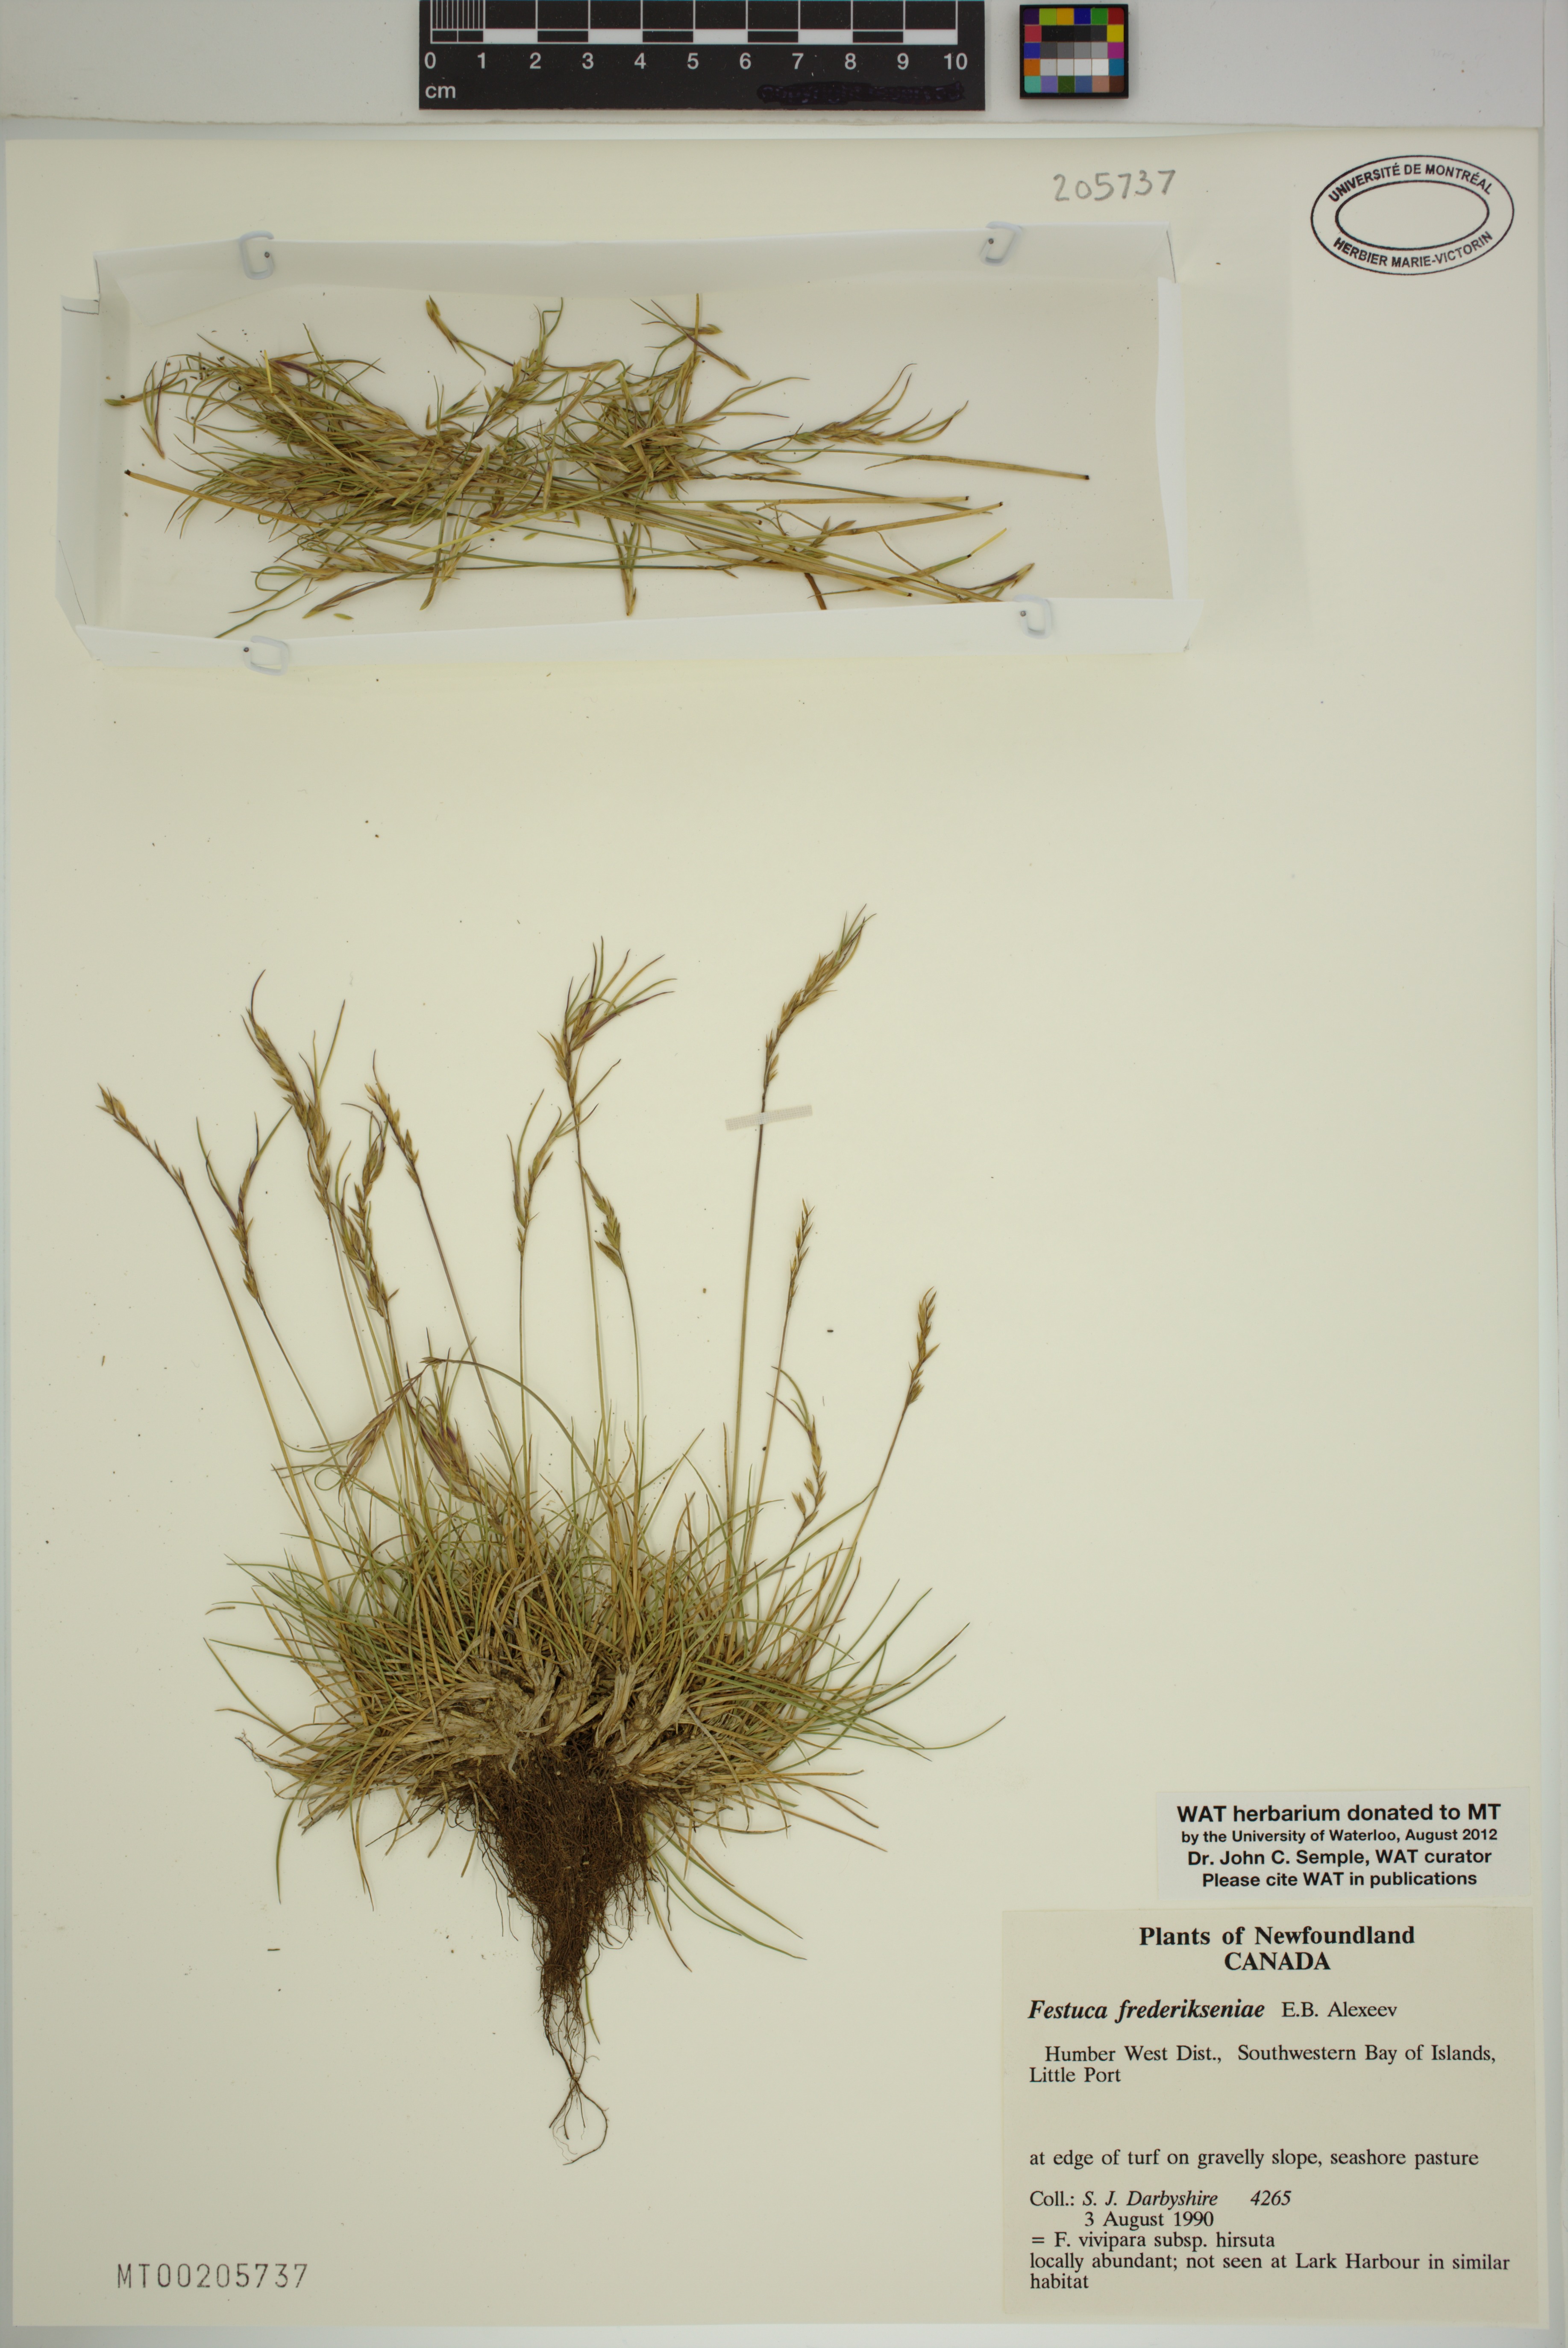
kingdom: Plantae
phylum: Tracheophyta
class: Liliopsida
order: Poales
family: Poaceae
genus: Festuca
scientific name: Festuca frederikseniae
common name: Frederiksen's fescue
